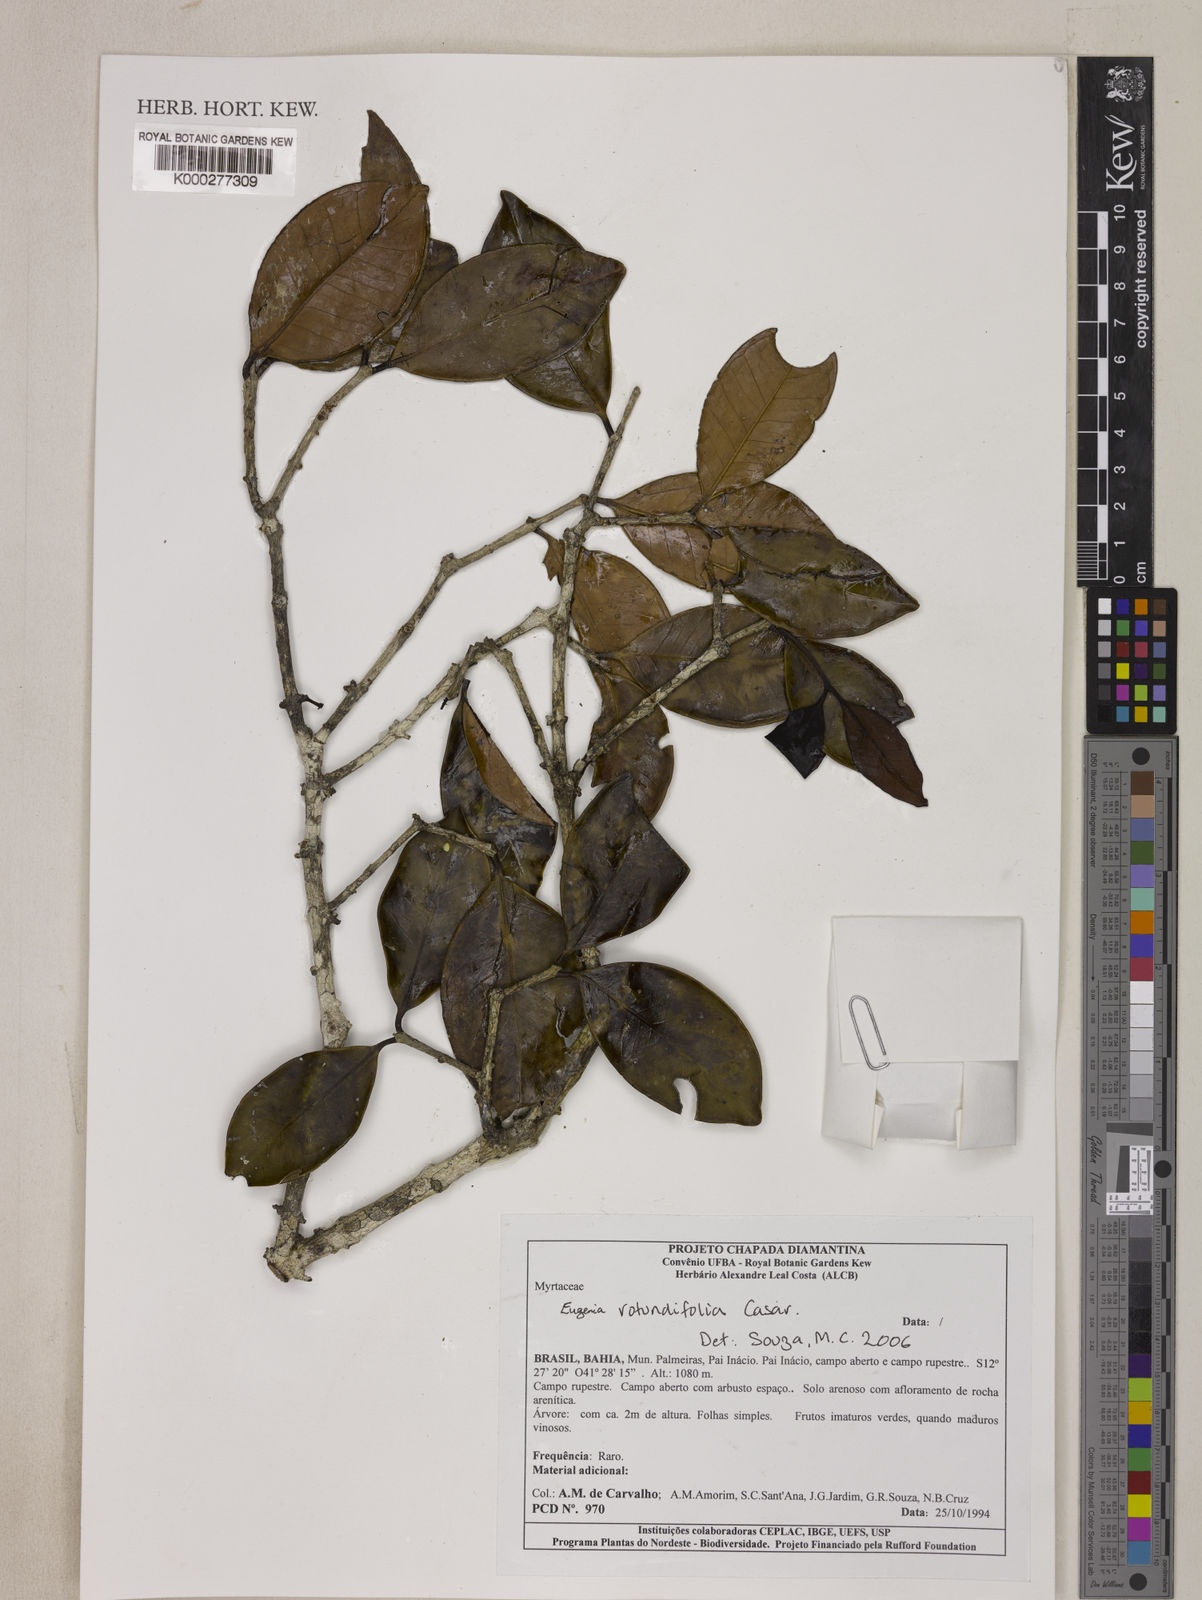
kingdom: Plantae
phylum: Tracheophyta
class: Magnoliopsida
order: Myrtales
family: Myrtaceae
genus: Eugenia
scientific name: Eugenia umbelliflora
